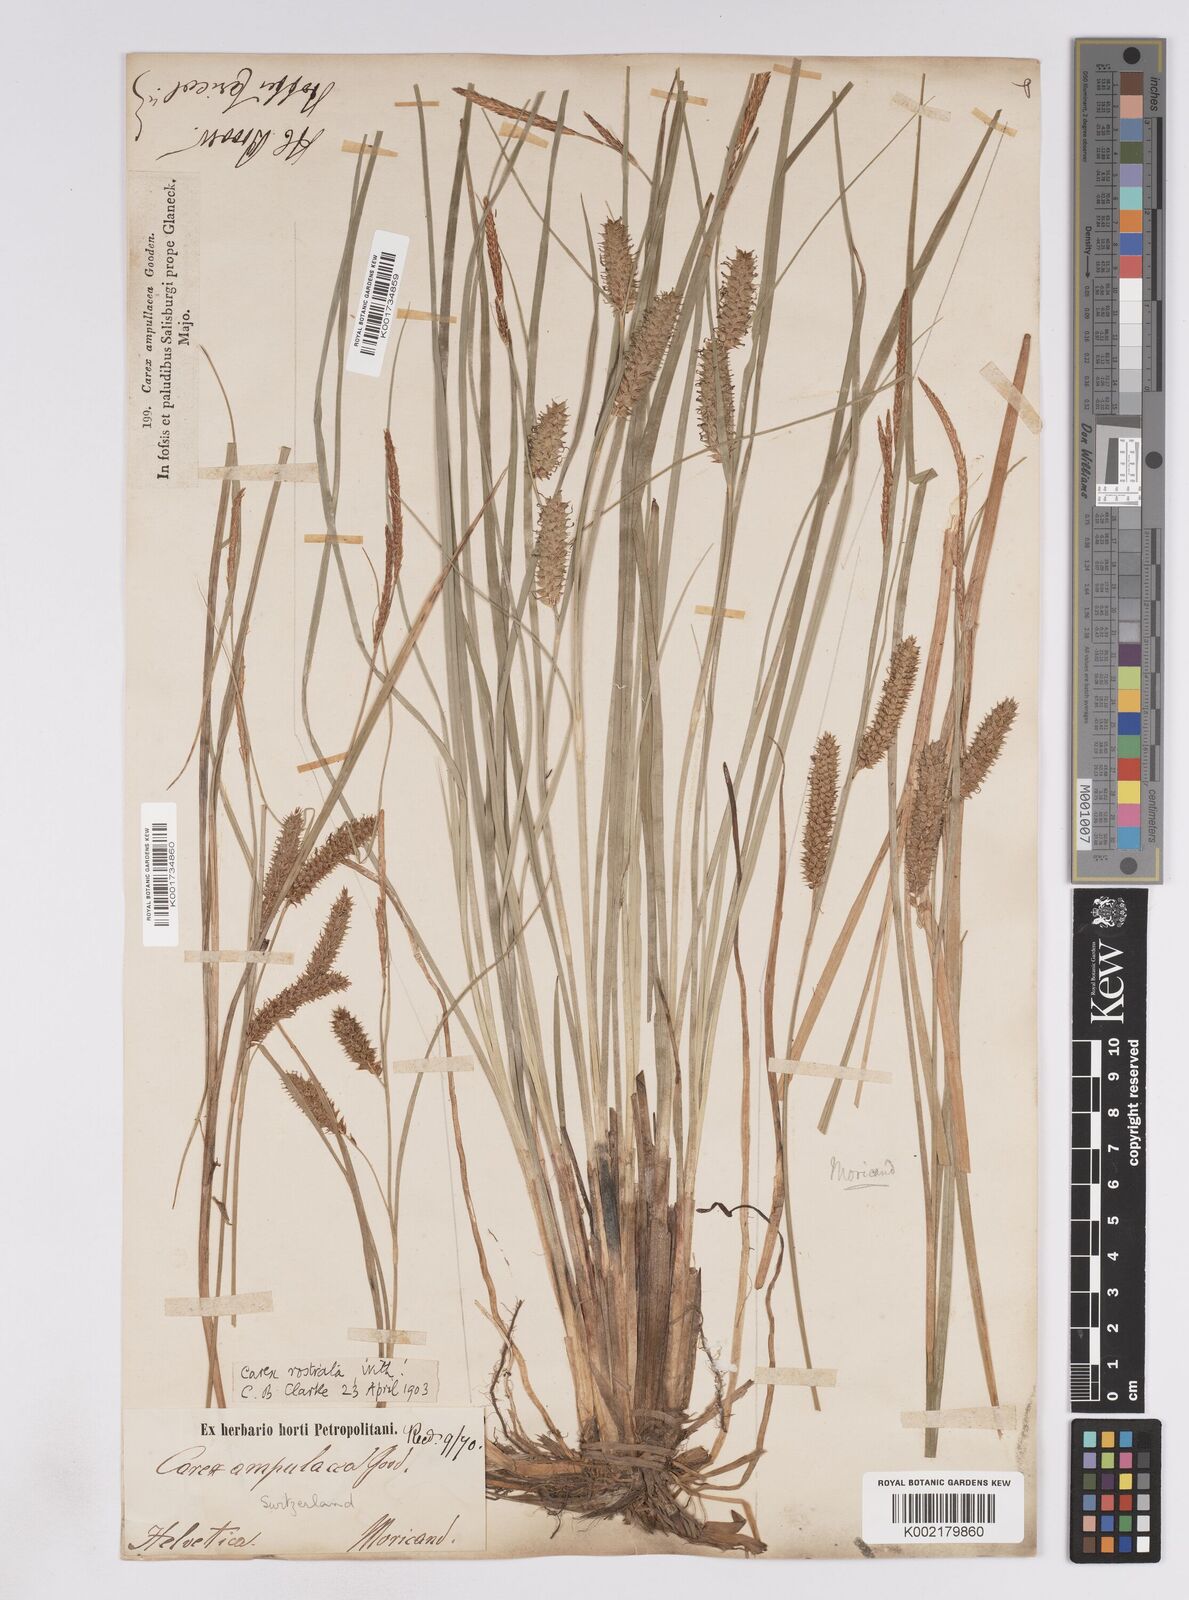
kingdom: Plantae
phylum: Tracheophyta
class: Liliopsida
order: Poales
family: Cyperaceae
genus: Carex
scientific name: Carex rostrata
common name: Bottle sedge
